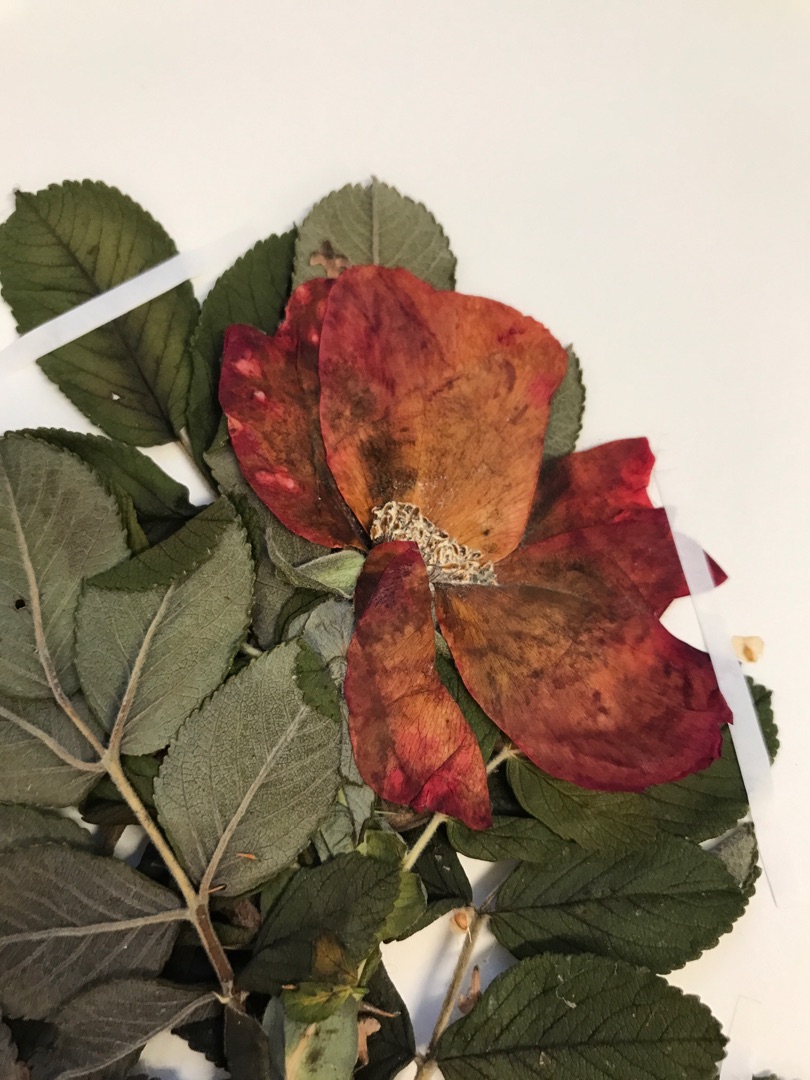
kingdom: Plantae
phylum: Tracheophyta
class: Magnoliopsida
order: Rosales
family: Rosaceae
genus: Rosa
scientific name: Rosa rugosa
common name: Rynket rose
